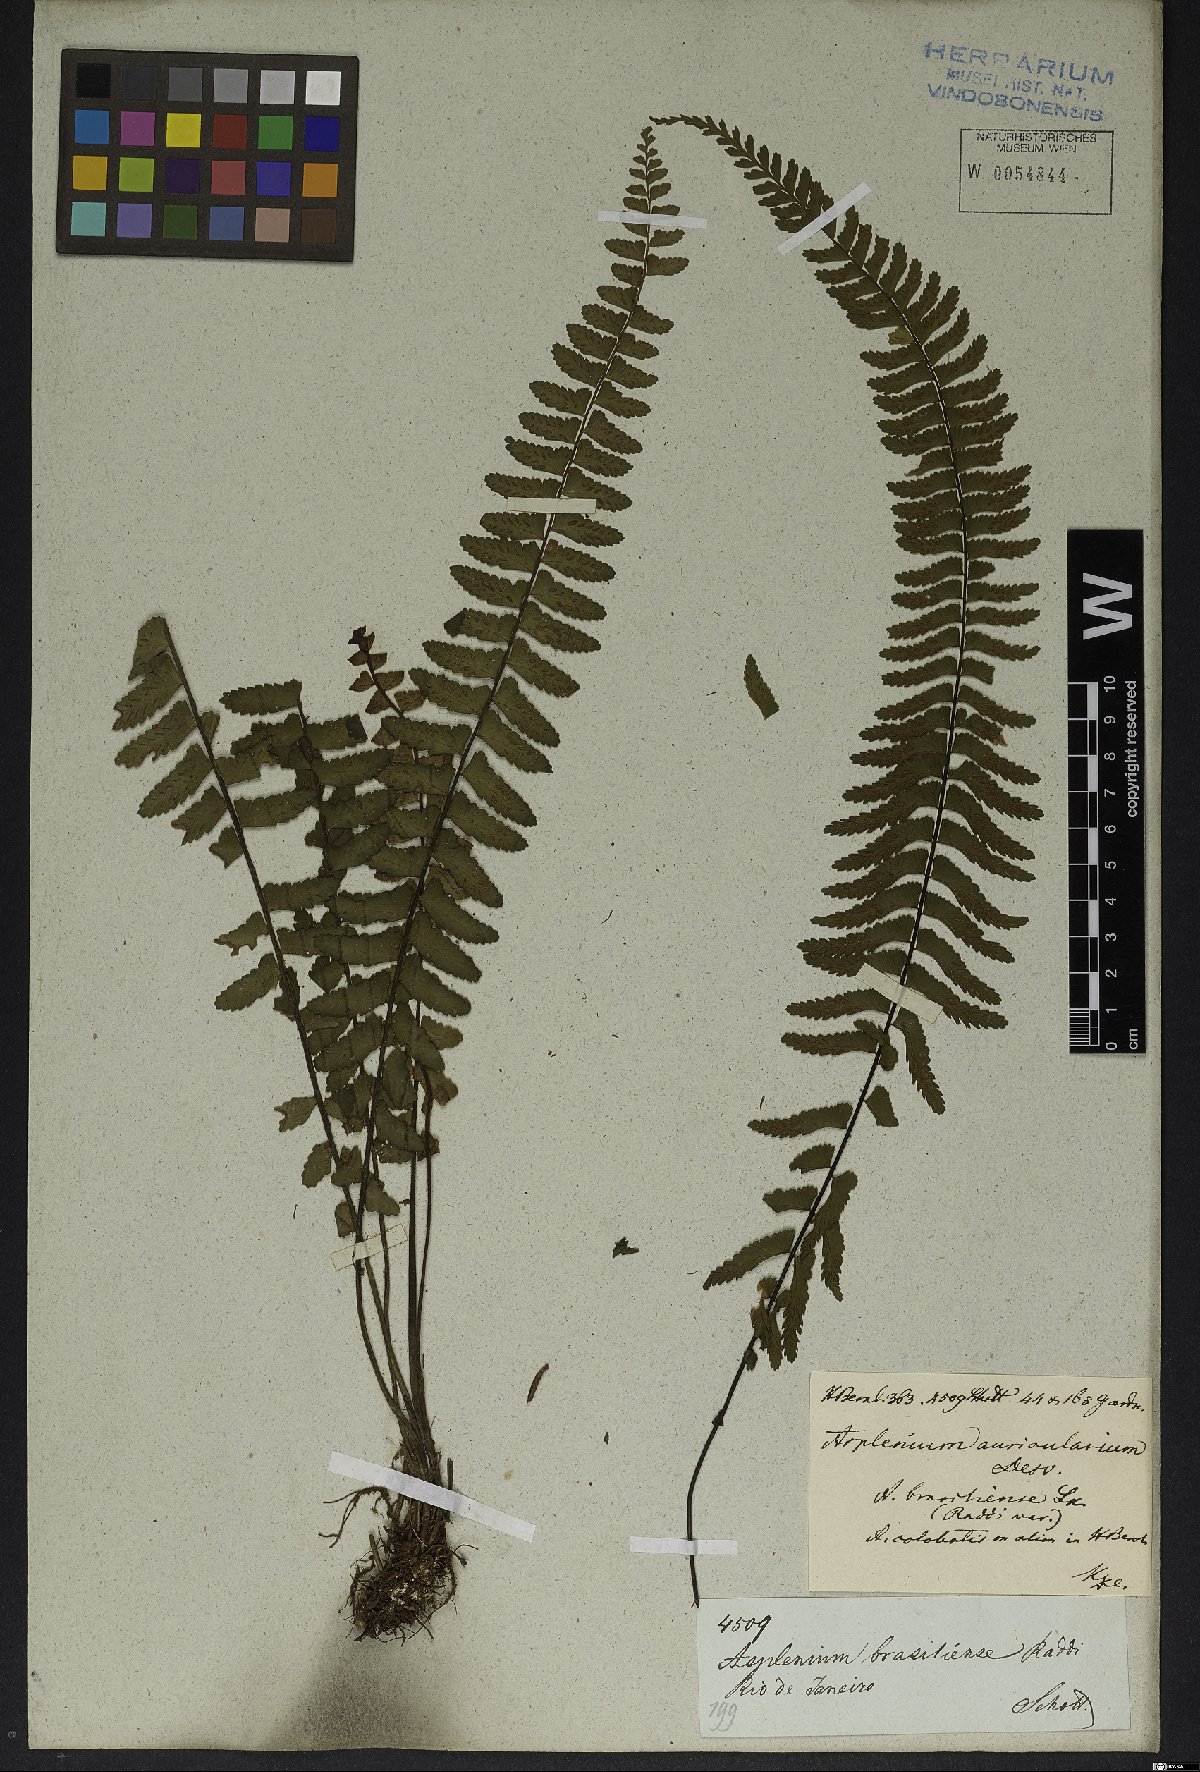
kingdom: Plantae
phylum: Tracheophyta
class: Polypodiopsida
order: Polypodiales
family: Aspleniaceae
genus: Asplenium
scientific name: Asplenium lunulatum
